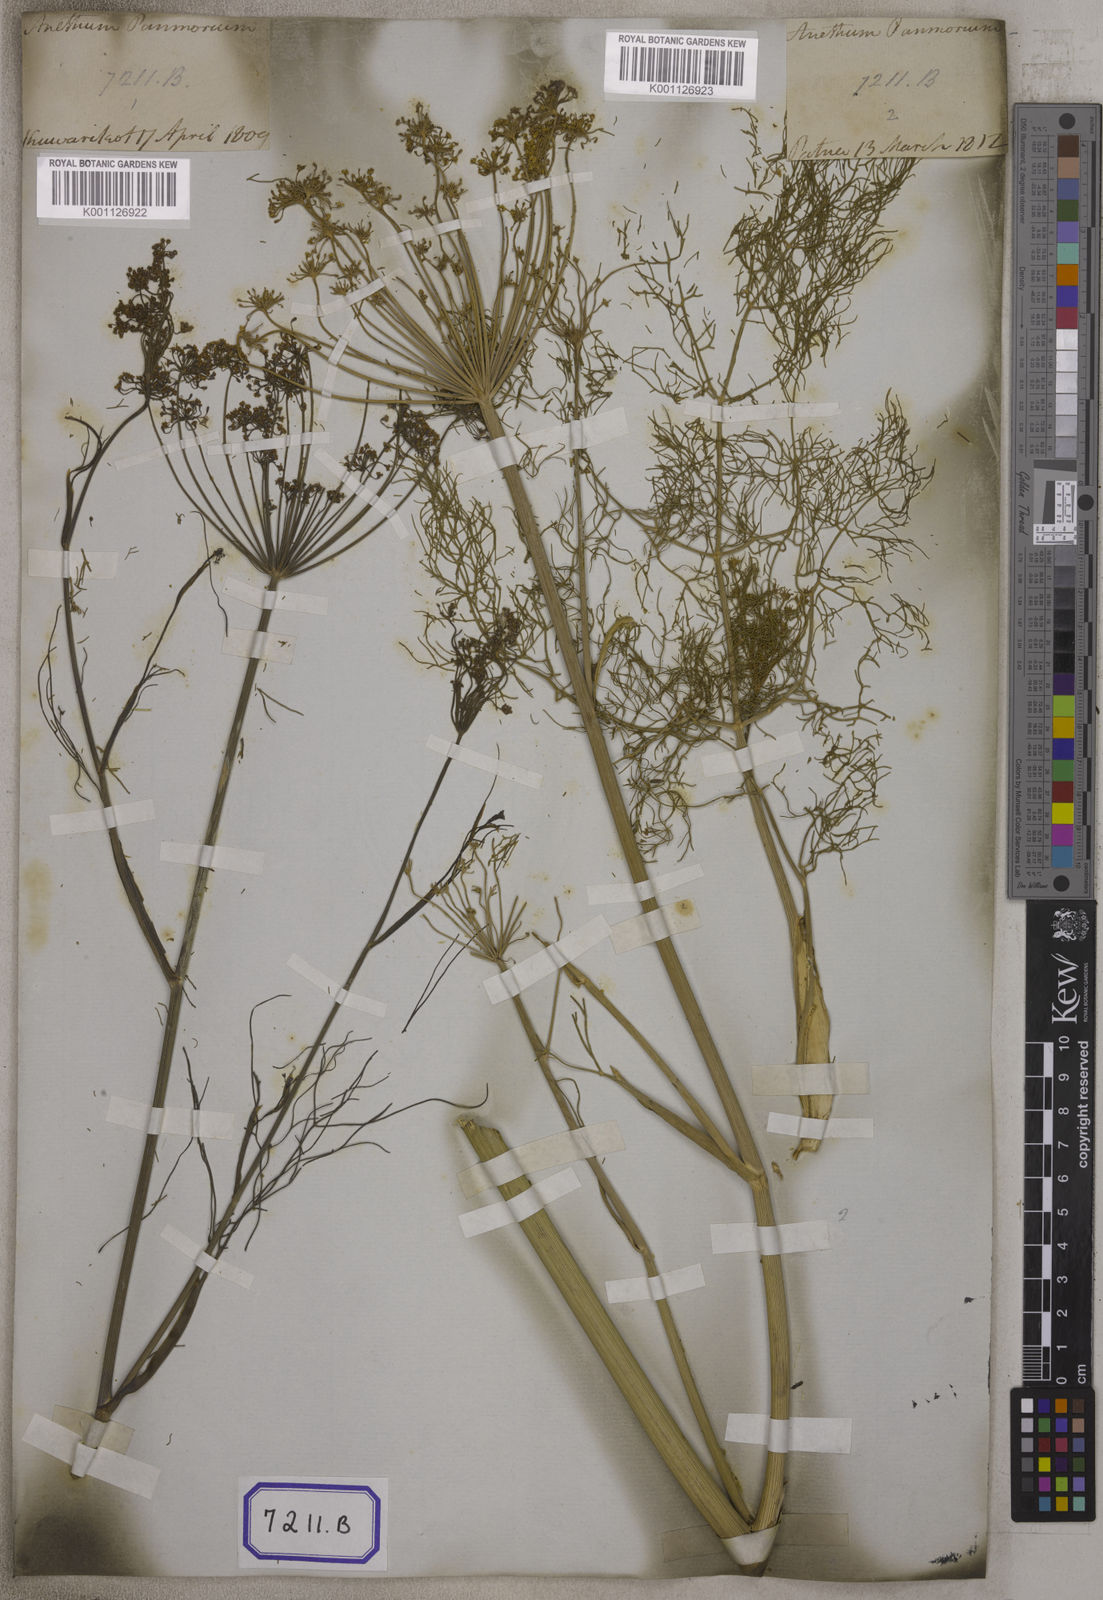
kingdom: Plantae
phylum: Tracheophyta
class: Magnoliopsida
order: Apiales
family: Apiaceae
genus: Anethum
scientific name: Anethum
